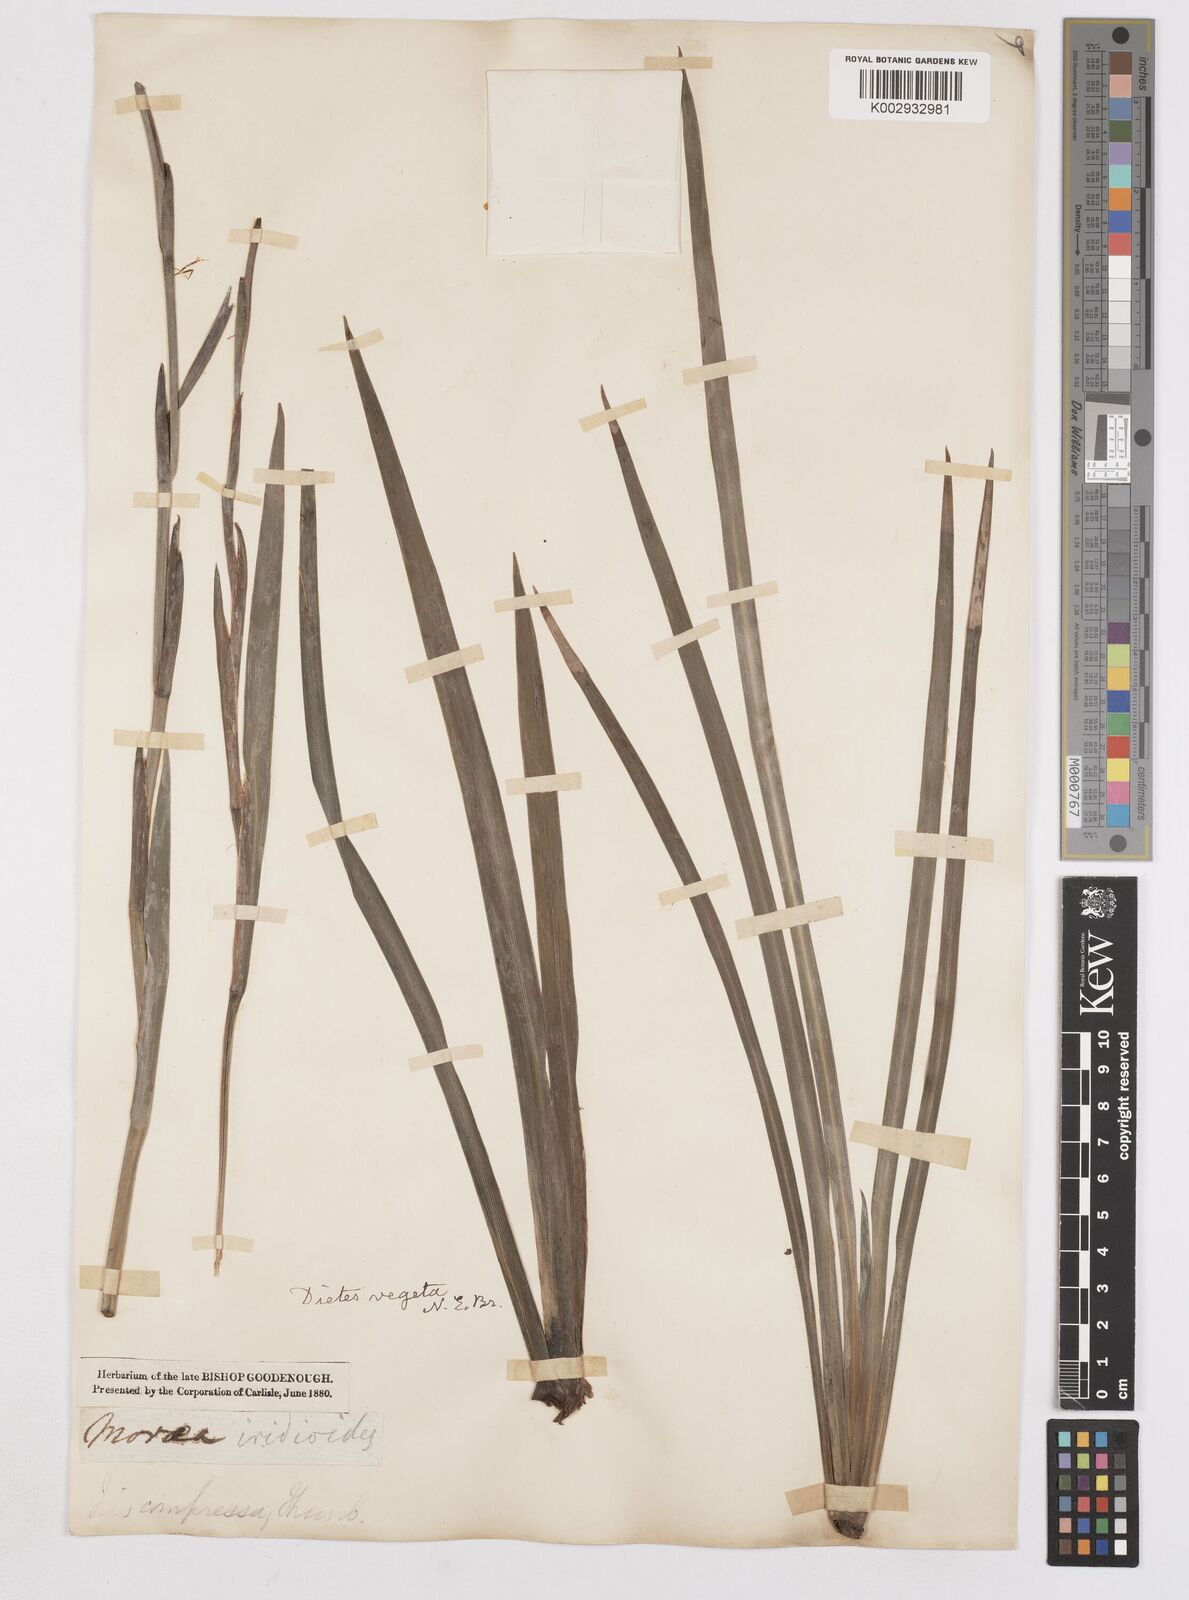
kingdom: Plantae
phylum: Tracheophyta
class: Liliopsida
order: Asparagales
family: Iridaceae
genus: Dietes
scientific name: Dietes iridioides
